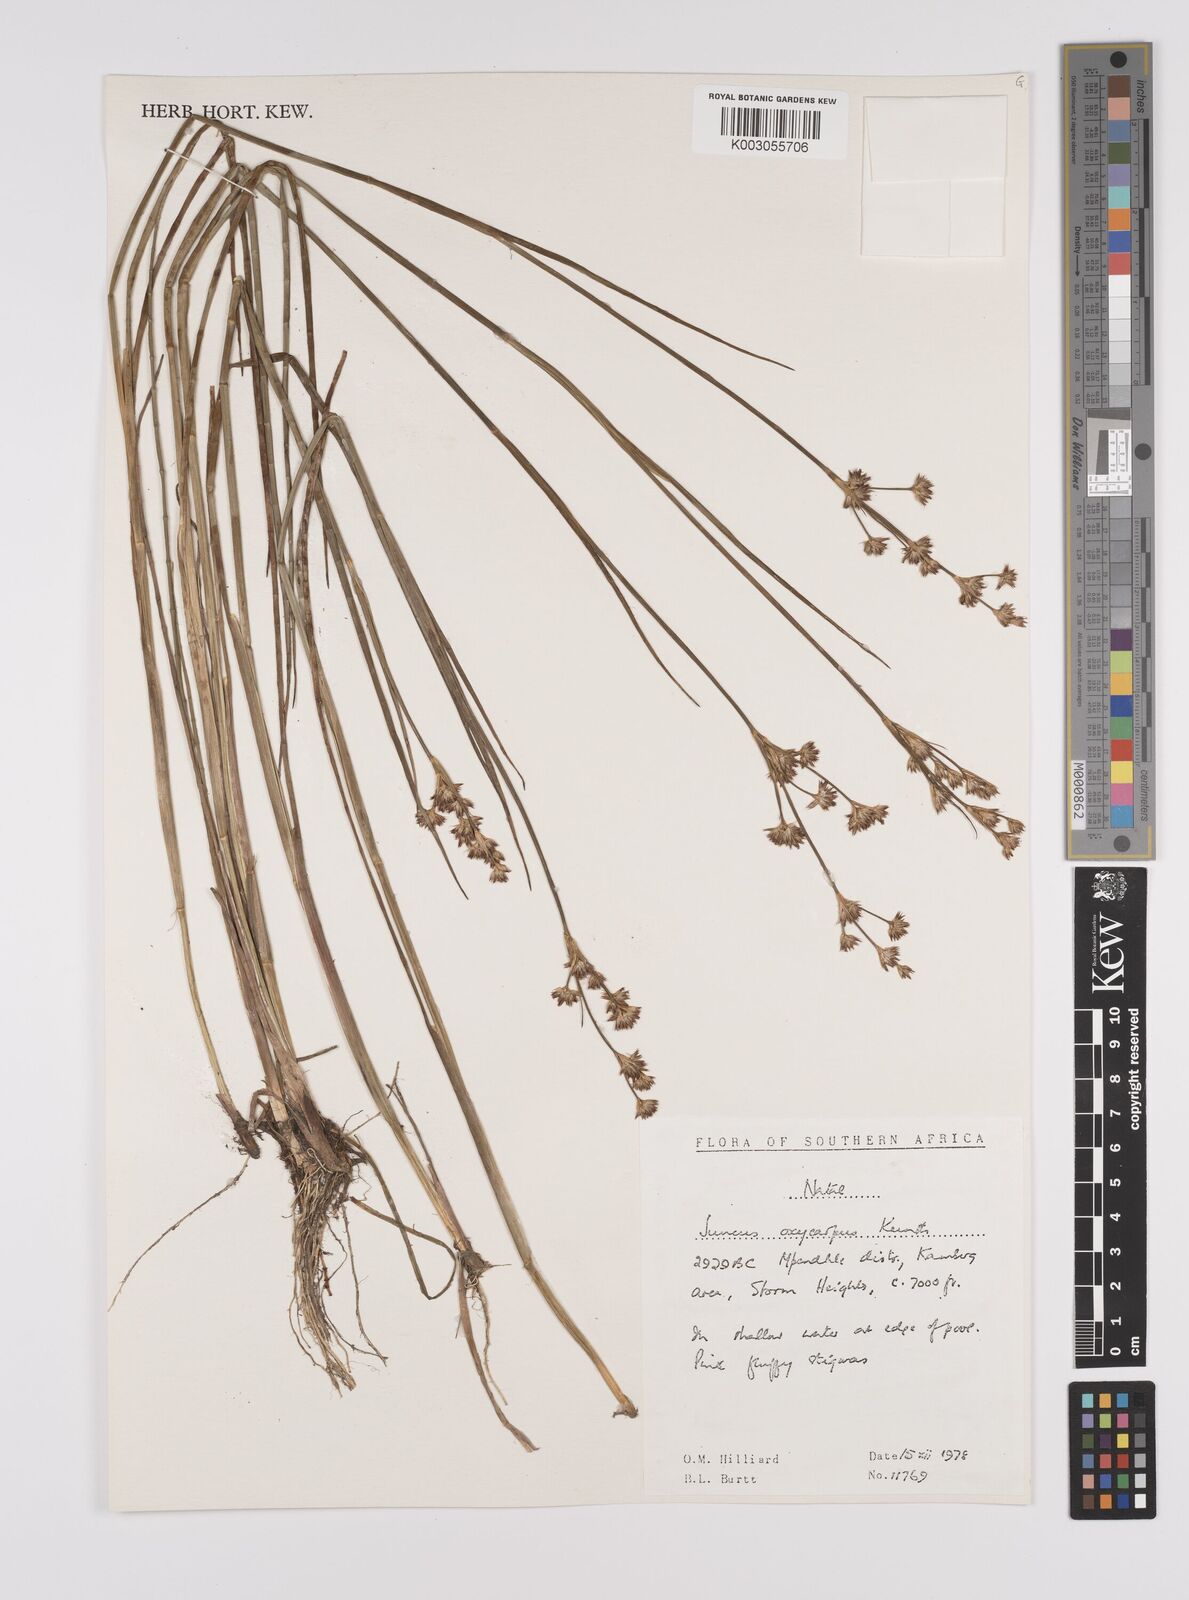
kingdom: Plantae
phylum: Tracheophyta
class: Liliopsida
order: Poales
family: Juncaceae
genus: Juncus
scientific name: Juncus oxycarpus
